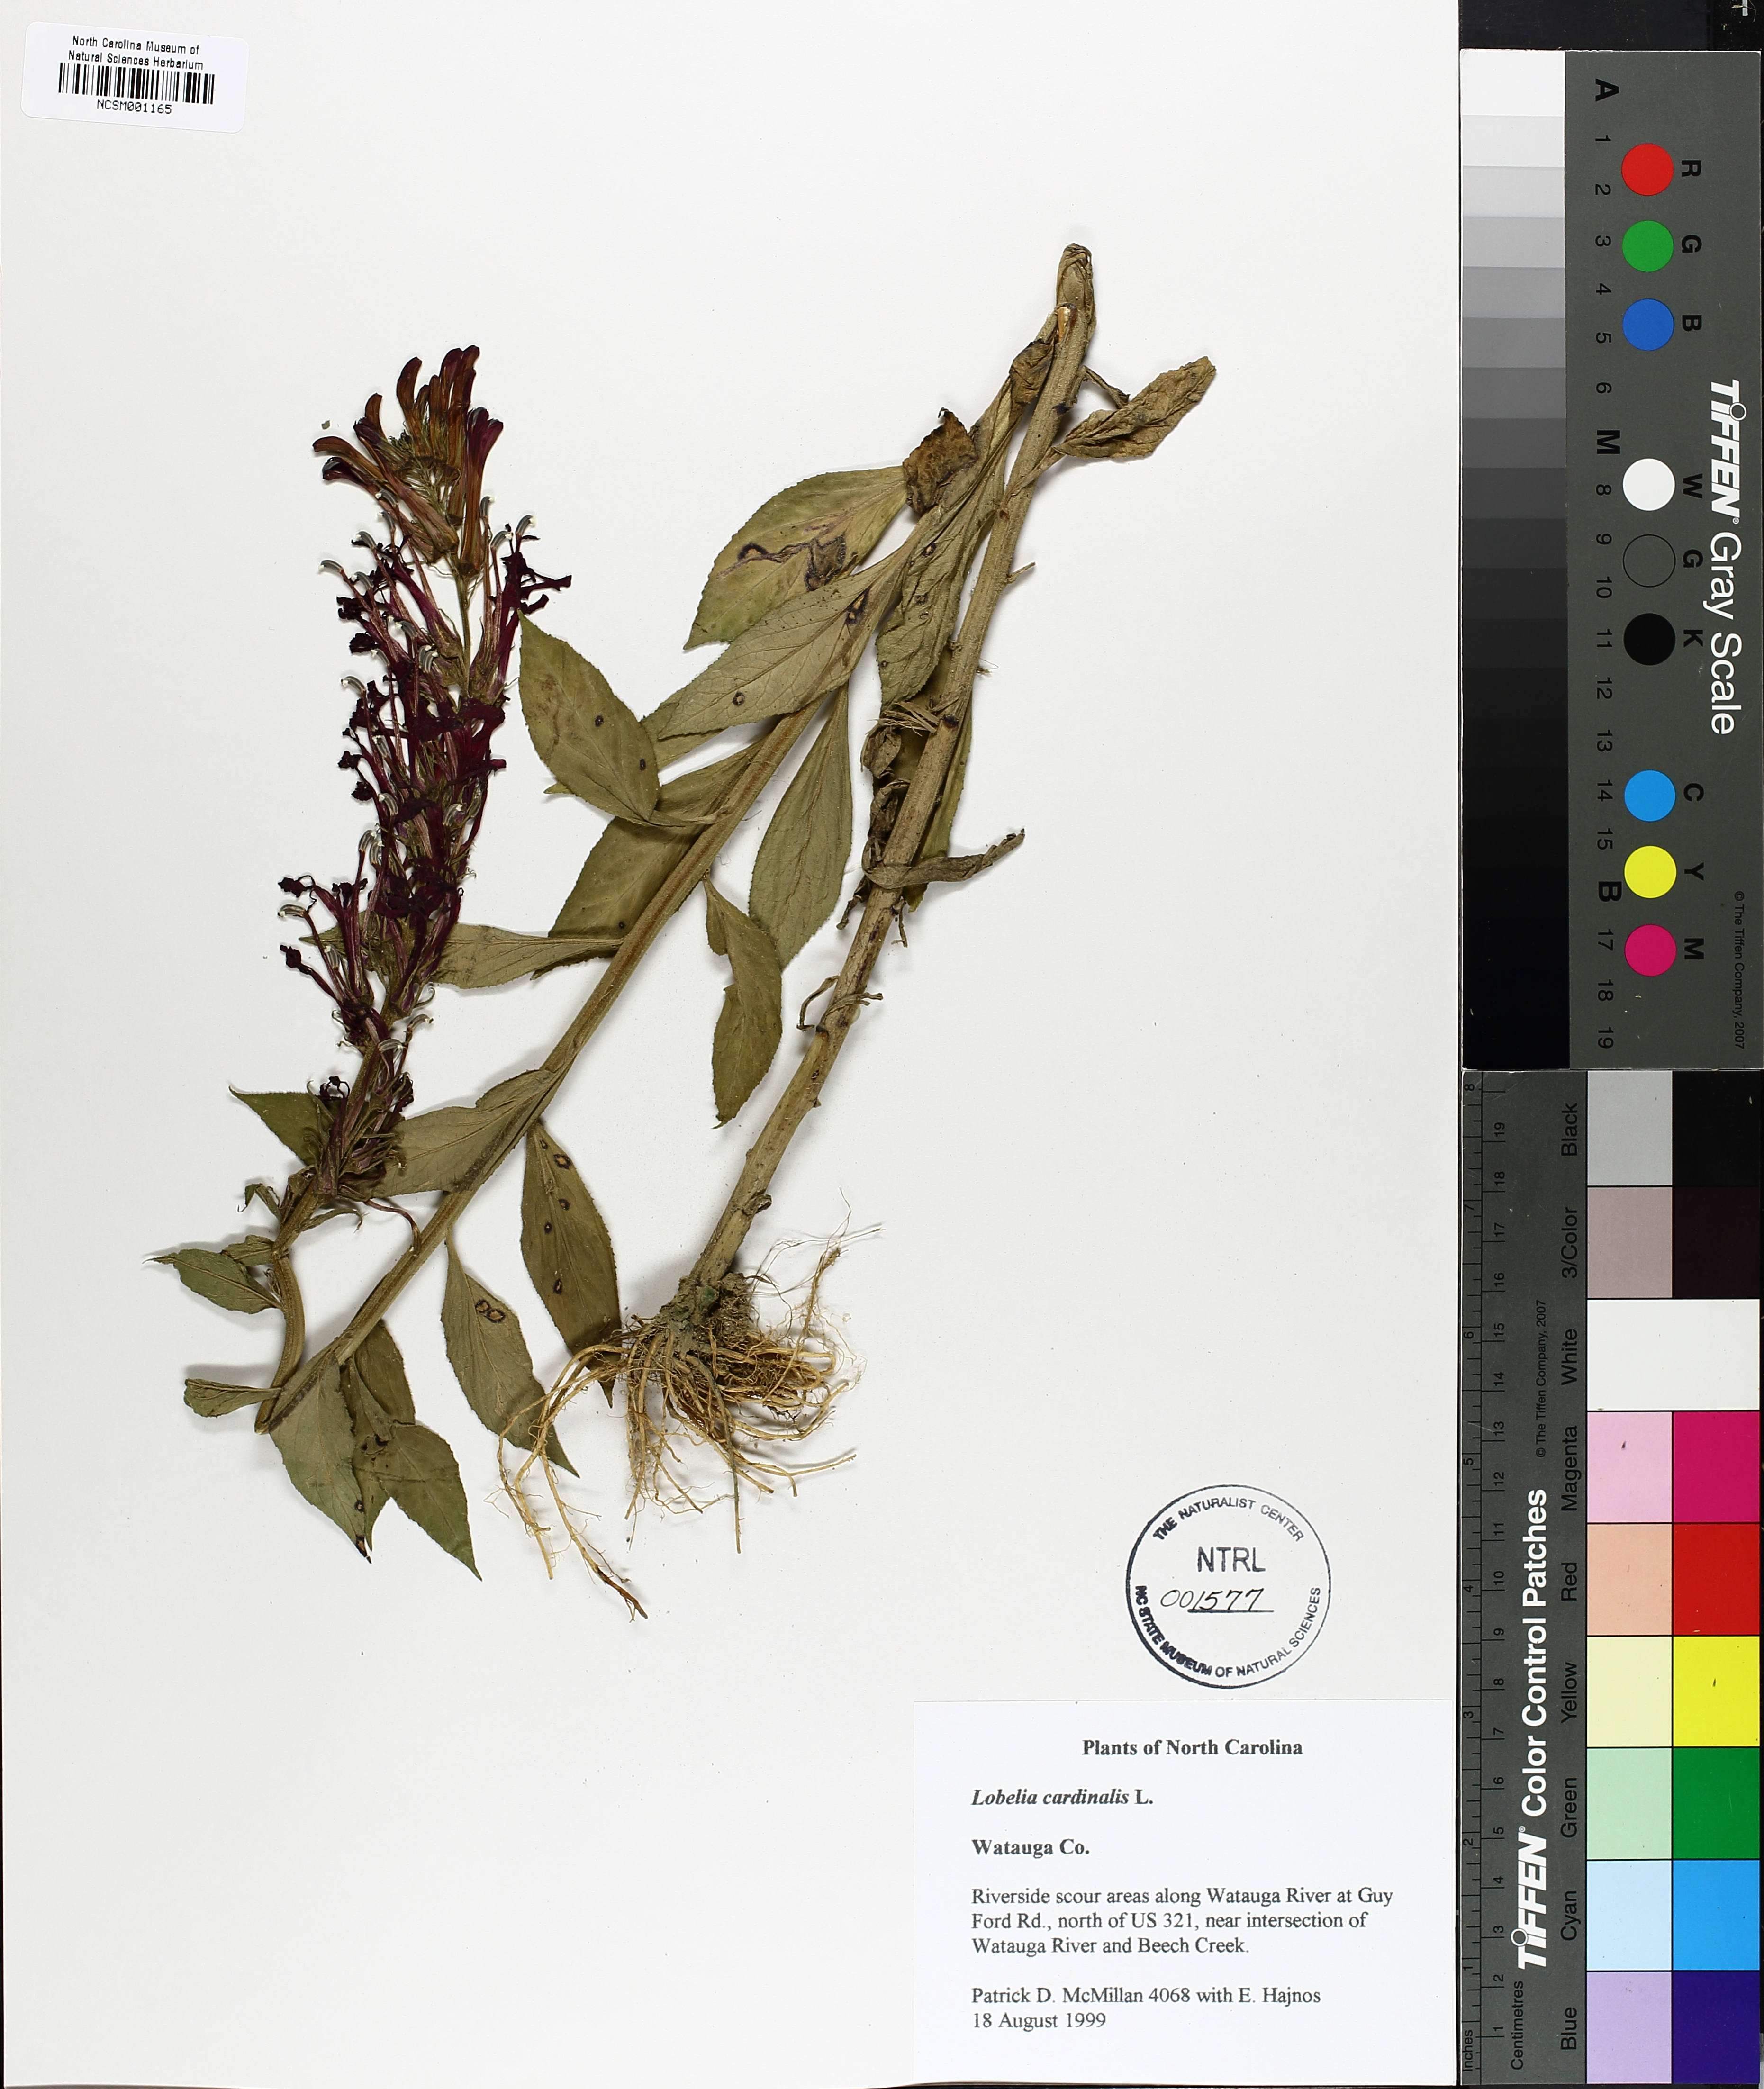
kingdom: Plantae
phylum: Tracheophyta
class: Magnoliopsida
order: Asterales
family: Campanulaceae
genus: Lobelia
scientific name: Lobelia cardinalis
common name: Cardinal flower
